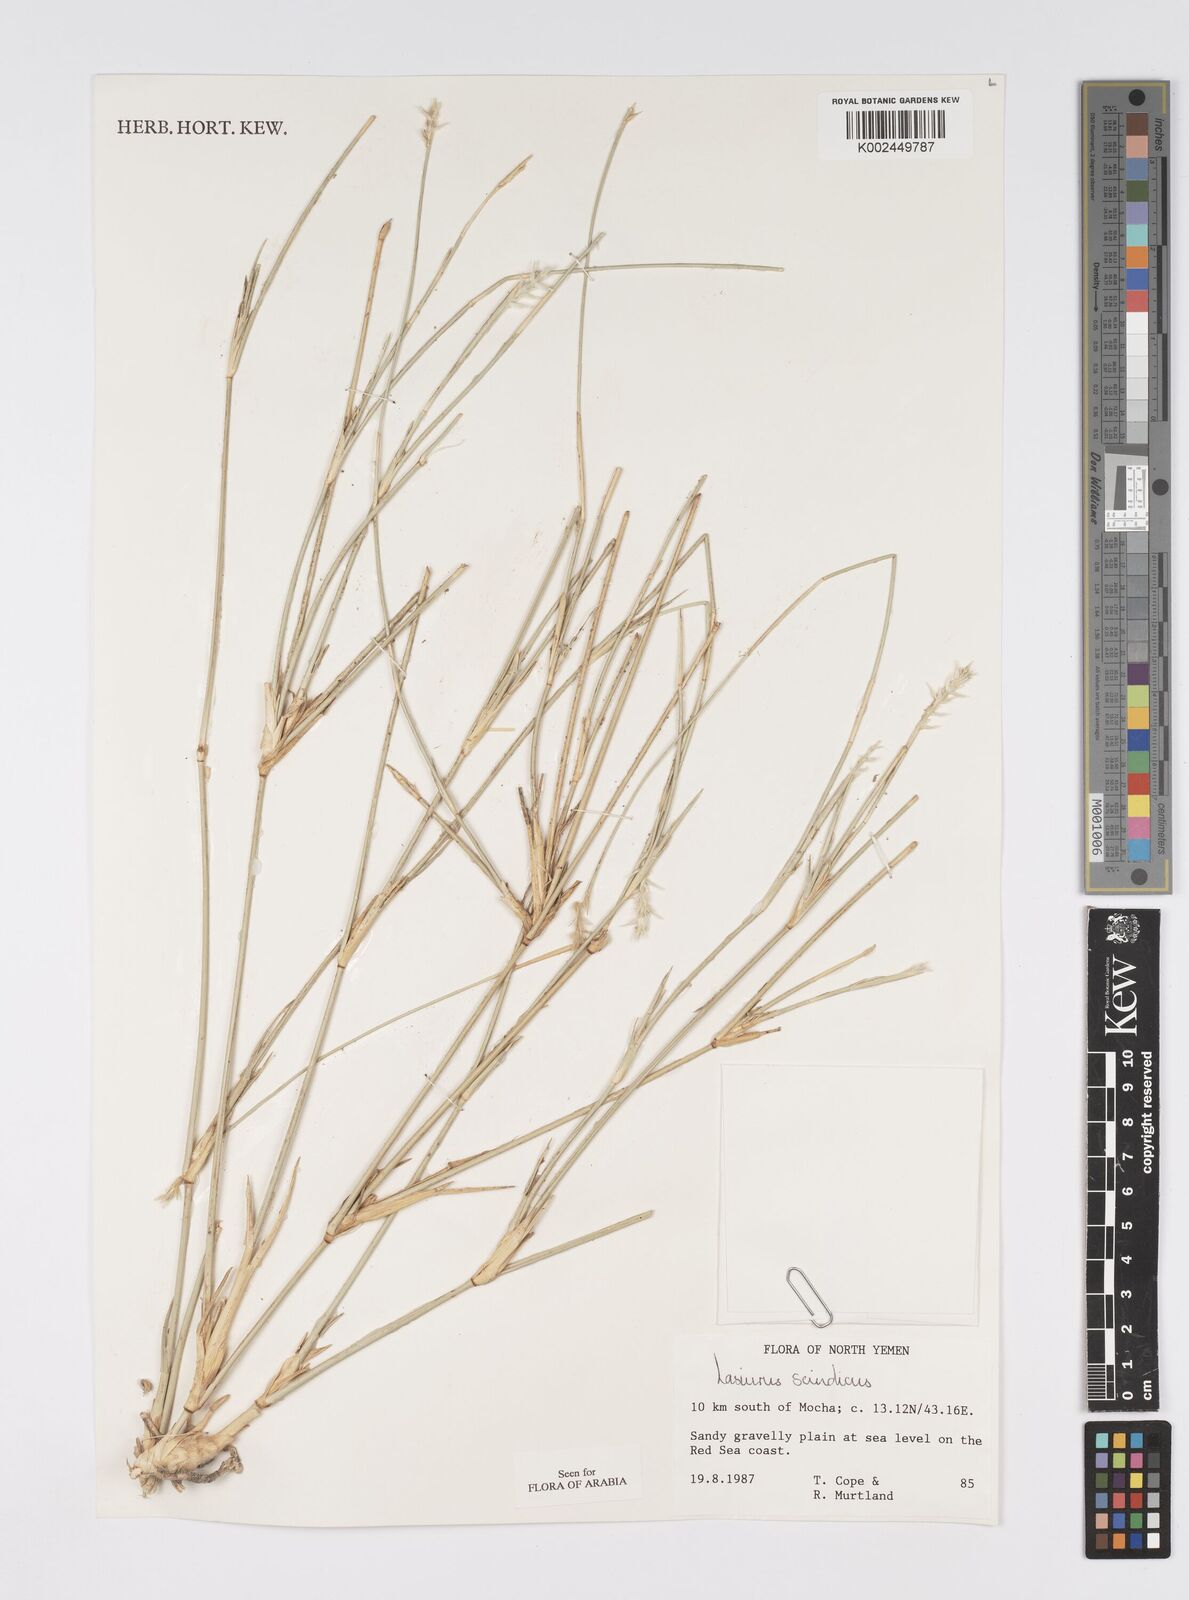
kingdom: Plantae
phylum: Tracheophyta
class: Liliopsida
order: Poales
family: Poaceae
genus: Lasiurus
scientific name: Lasiurus scindicus
